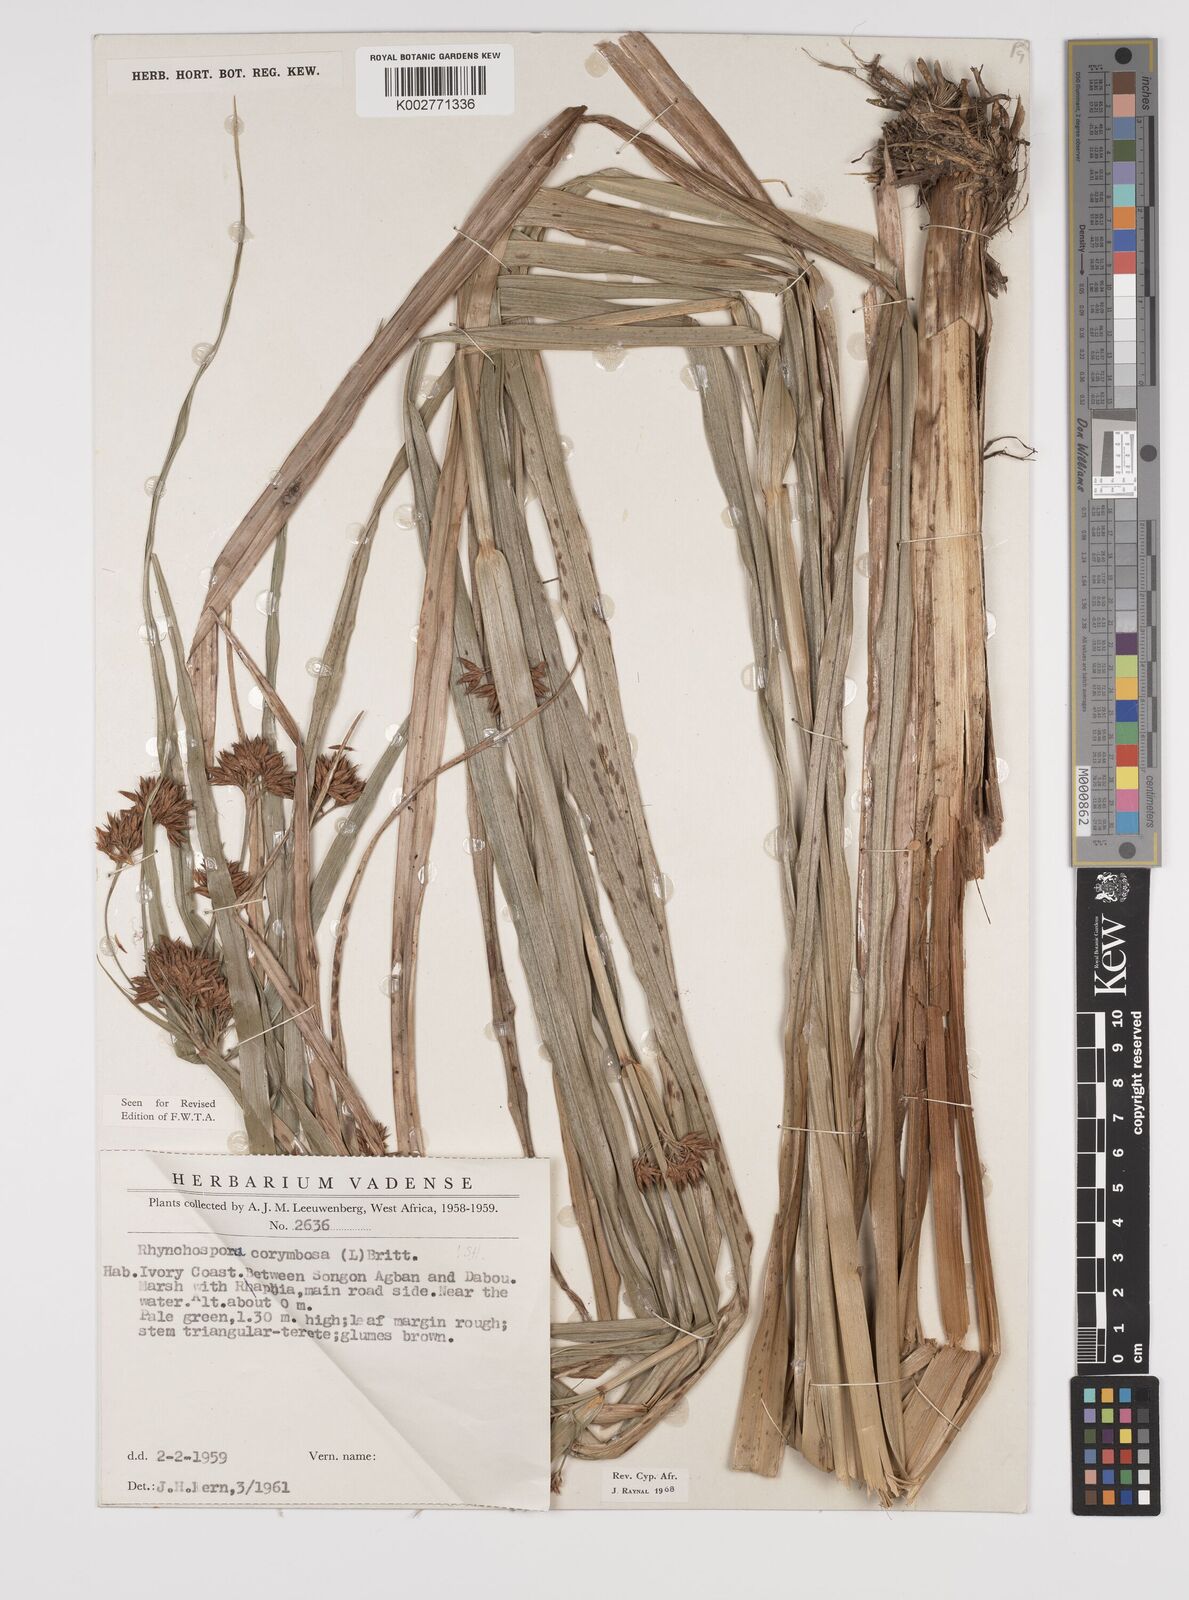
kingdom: Plantae
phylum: Tracheophyta
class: Liliopsida
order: Poales
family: Cyperaceae
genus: Rhynchospora
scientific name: Rhynchospora corymbosa
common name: Golden beak sedge
